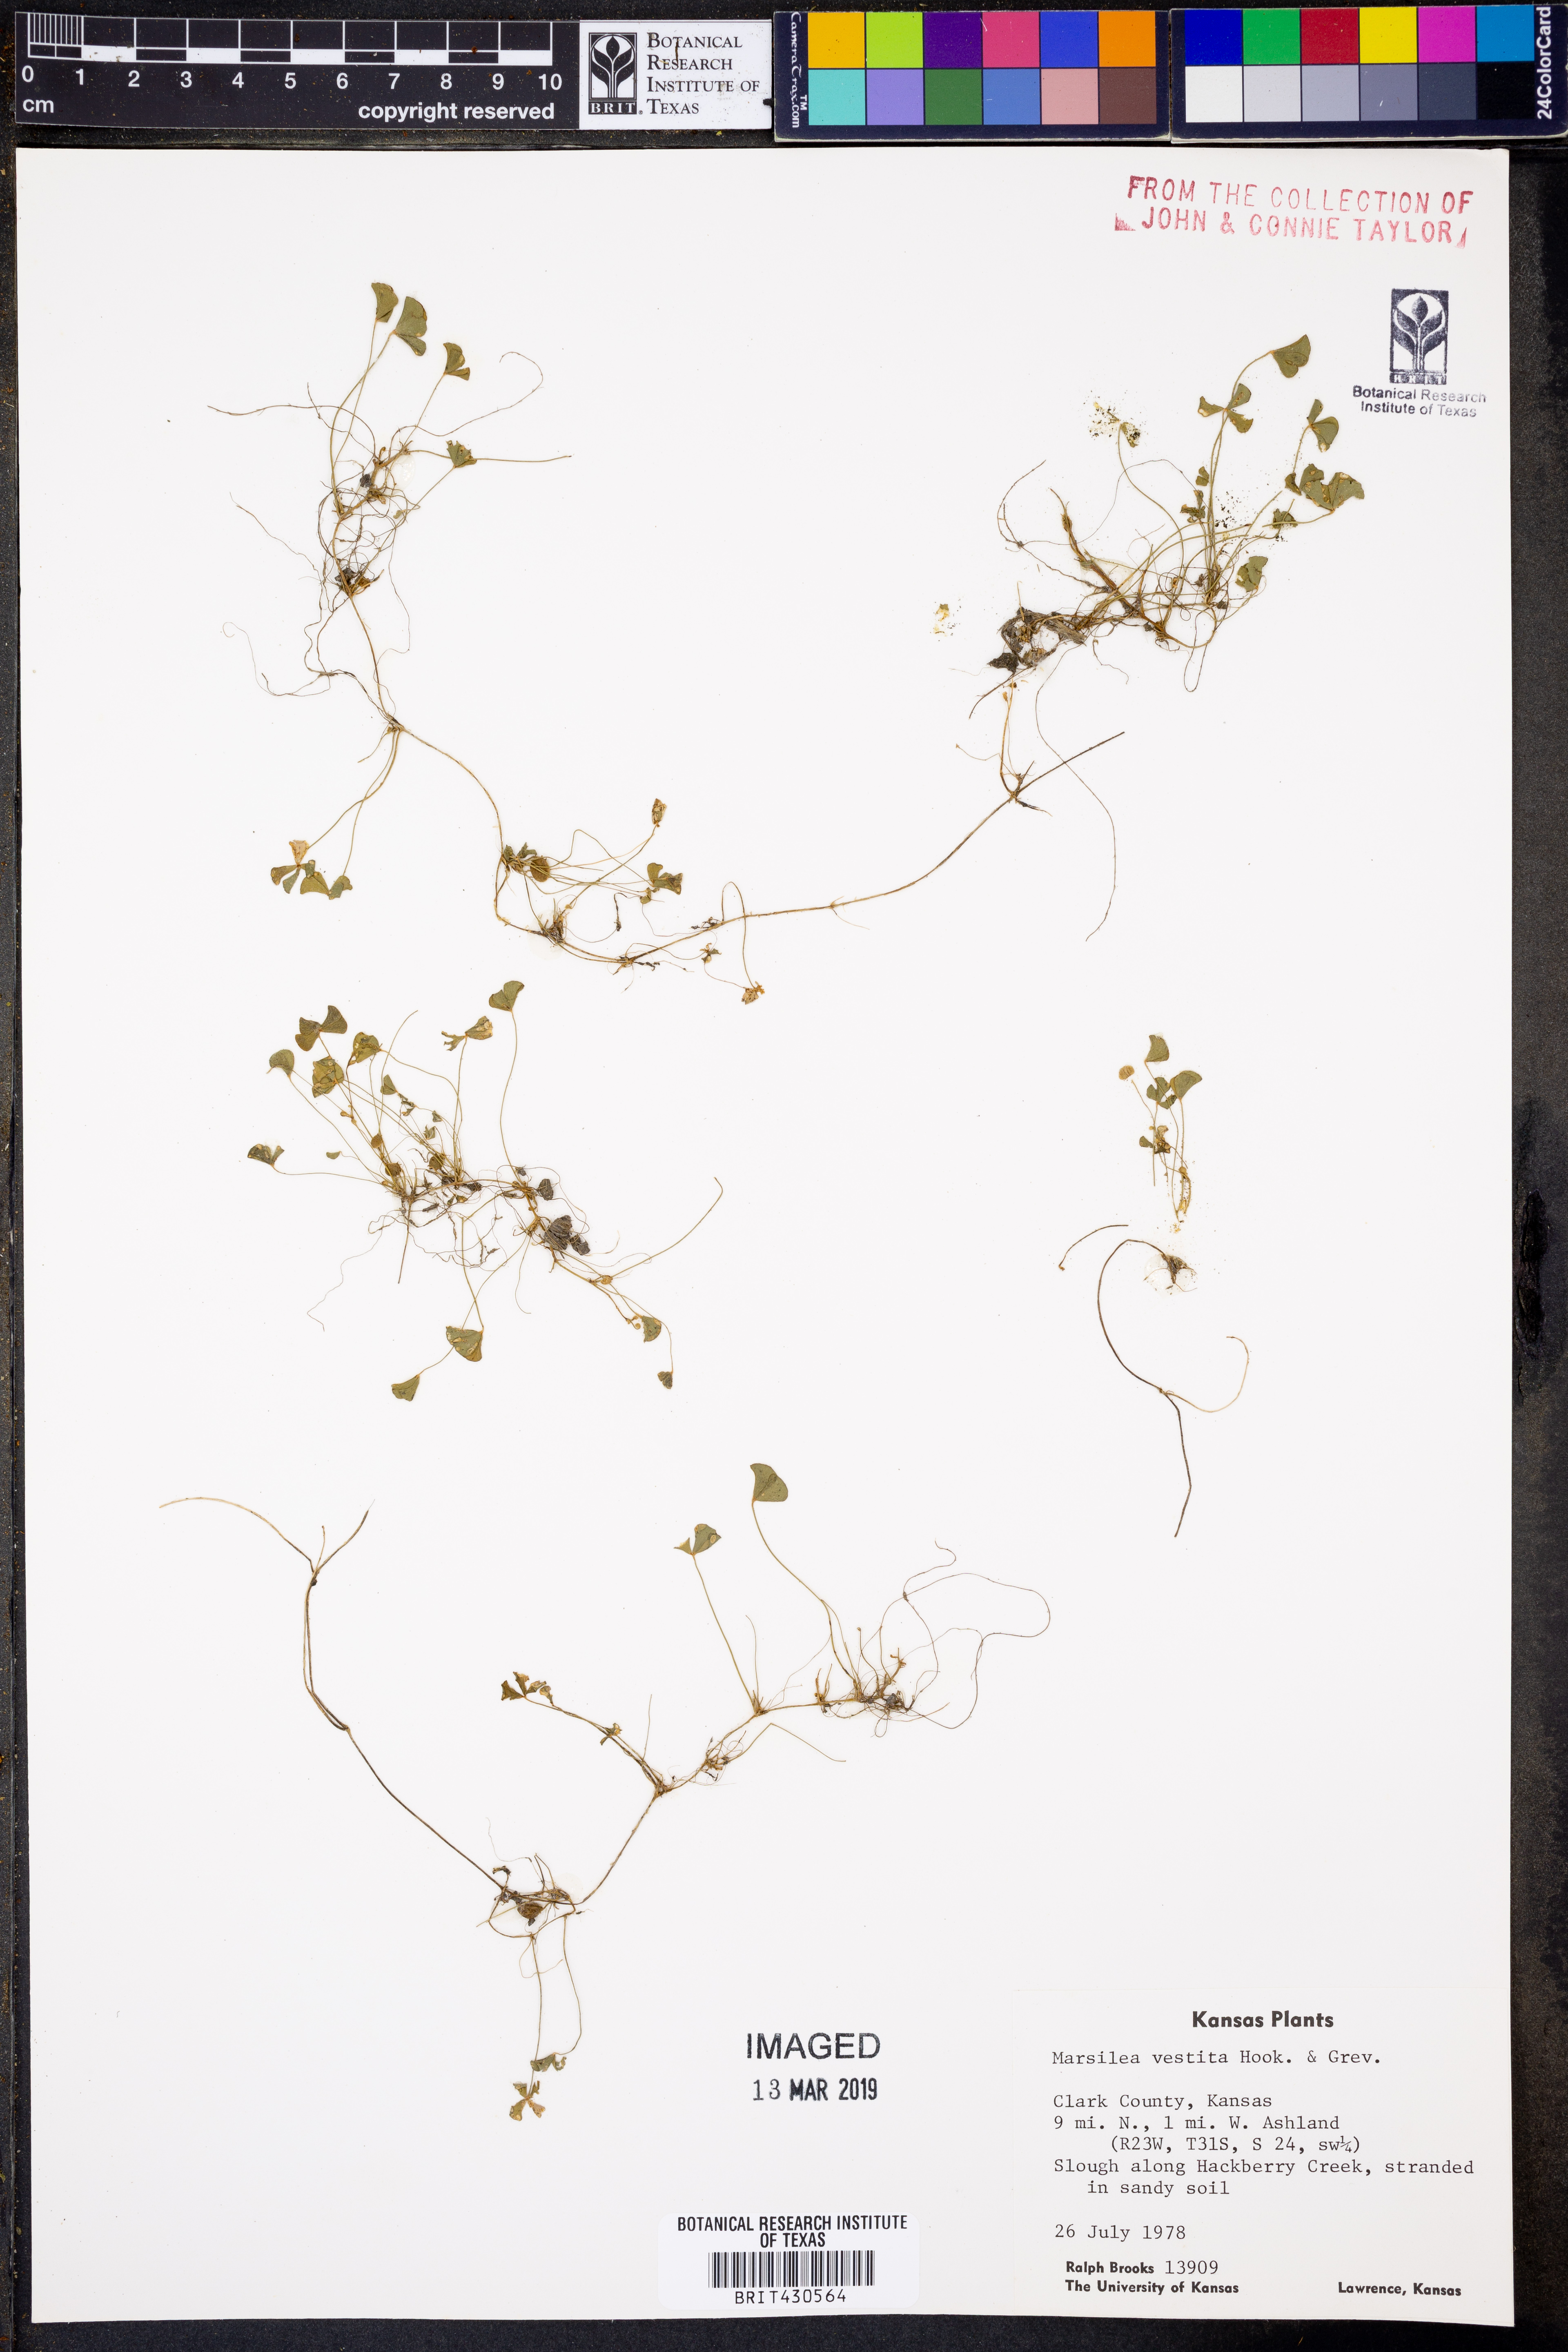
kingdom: Plantae
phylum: Tracheophyta
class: Polypodiopsida
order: Salviniales
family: Marsileaceae
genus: Marsilea
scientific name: Marsilea vestita
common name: Hooked-pepperwort
